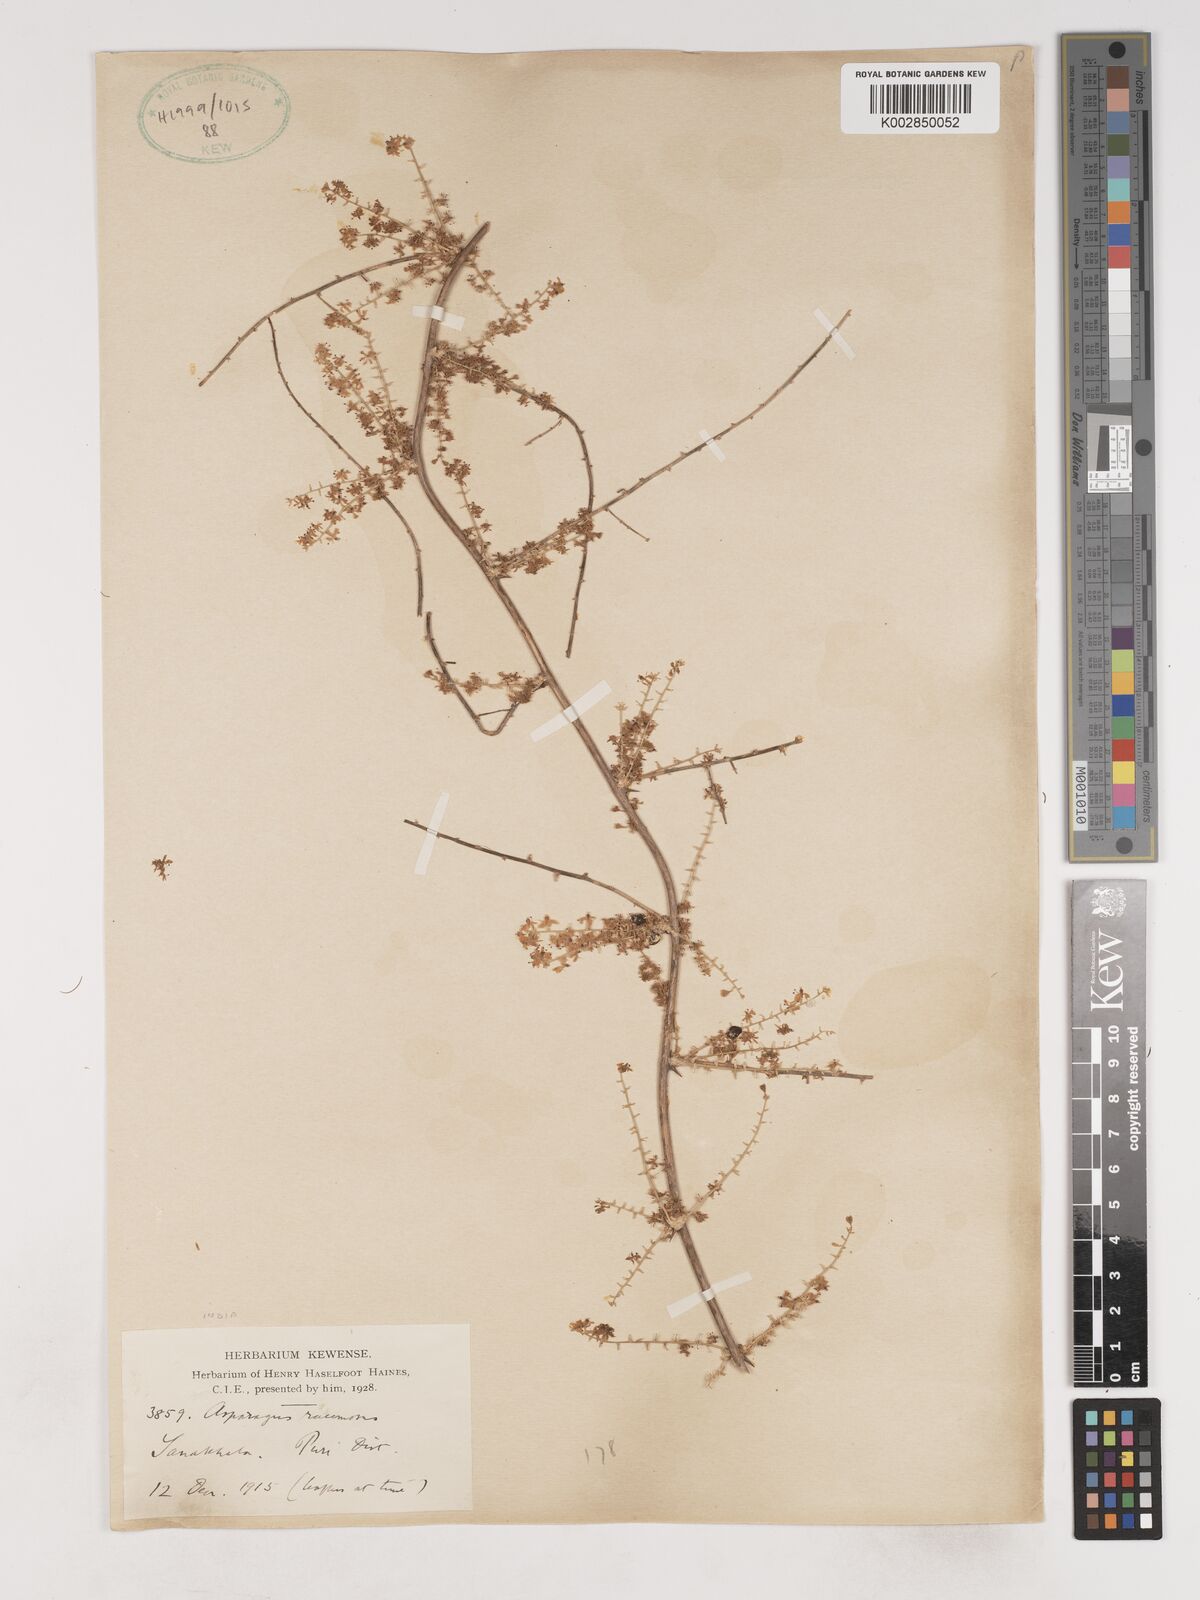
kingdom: Plantae
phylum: Tracheophyta
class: Liliopsida
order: Asparagales
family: Asparagaceae
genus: Asparagus
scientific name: Asparagus racemosus
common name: Asparagus-fern
